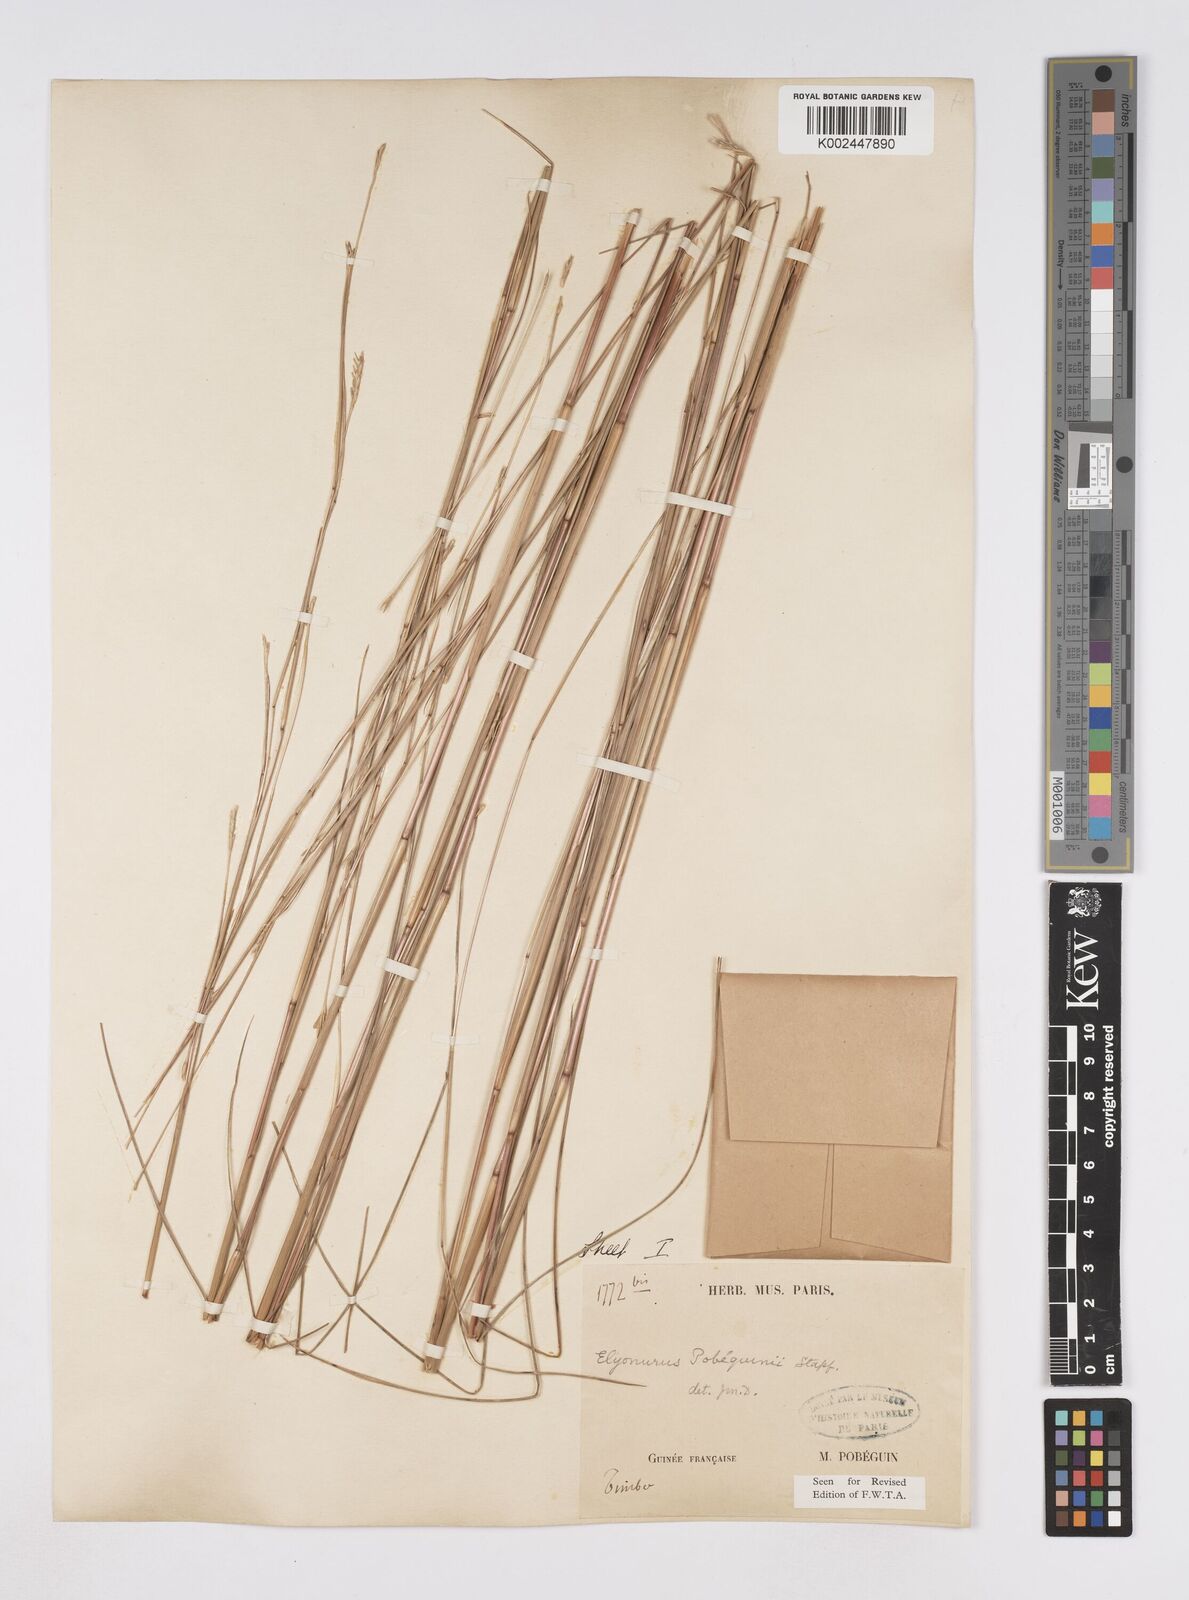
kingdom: Plantae
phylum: Tracheophyta
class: Liliopsida
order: Poales
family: Poaceae
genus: Elionurus
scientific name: Elionurus ciliaris
